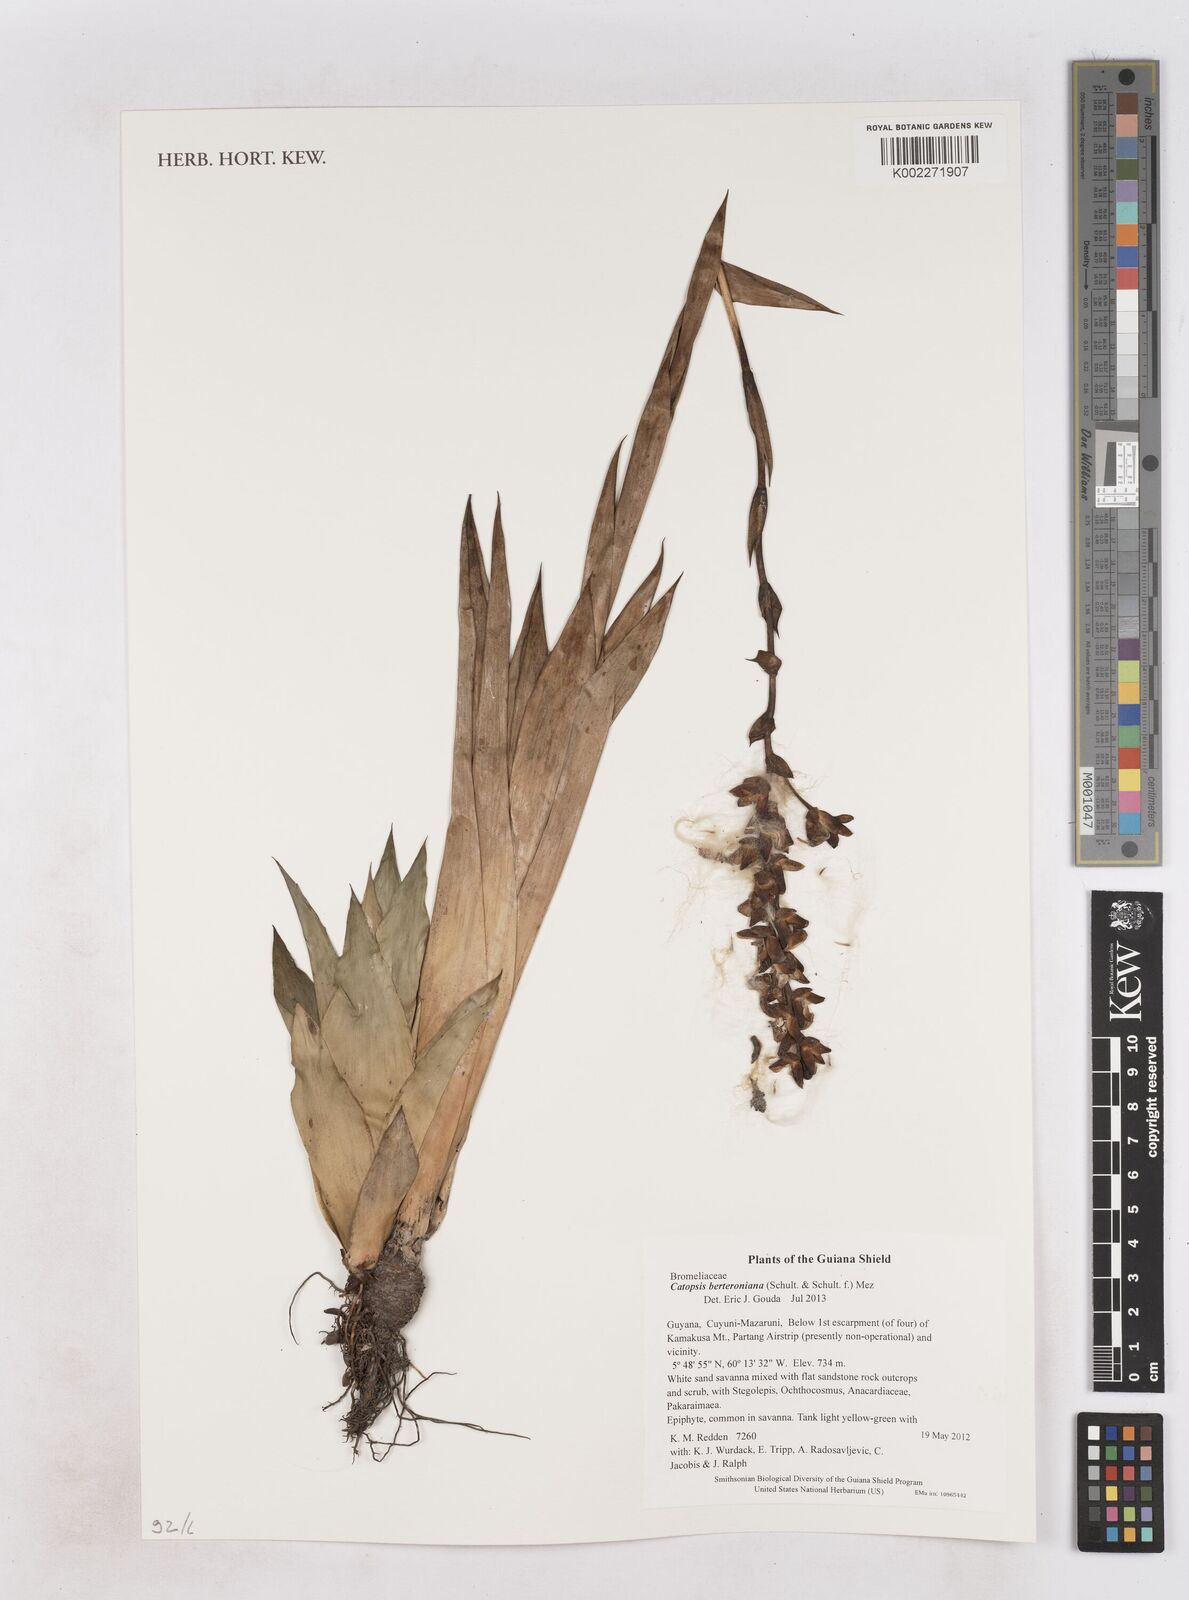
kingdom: Plantae
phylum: Tracheophyta
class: Liliopsida
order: Poales
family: Bromeliaceae
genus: Catopsis
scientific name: Catopsis berteroniana
